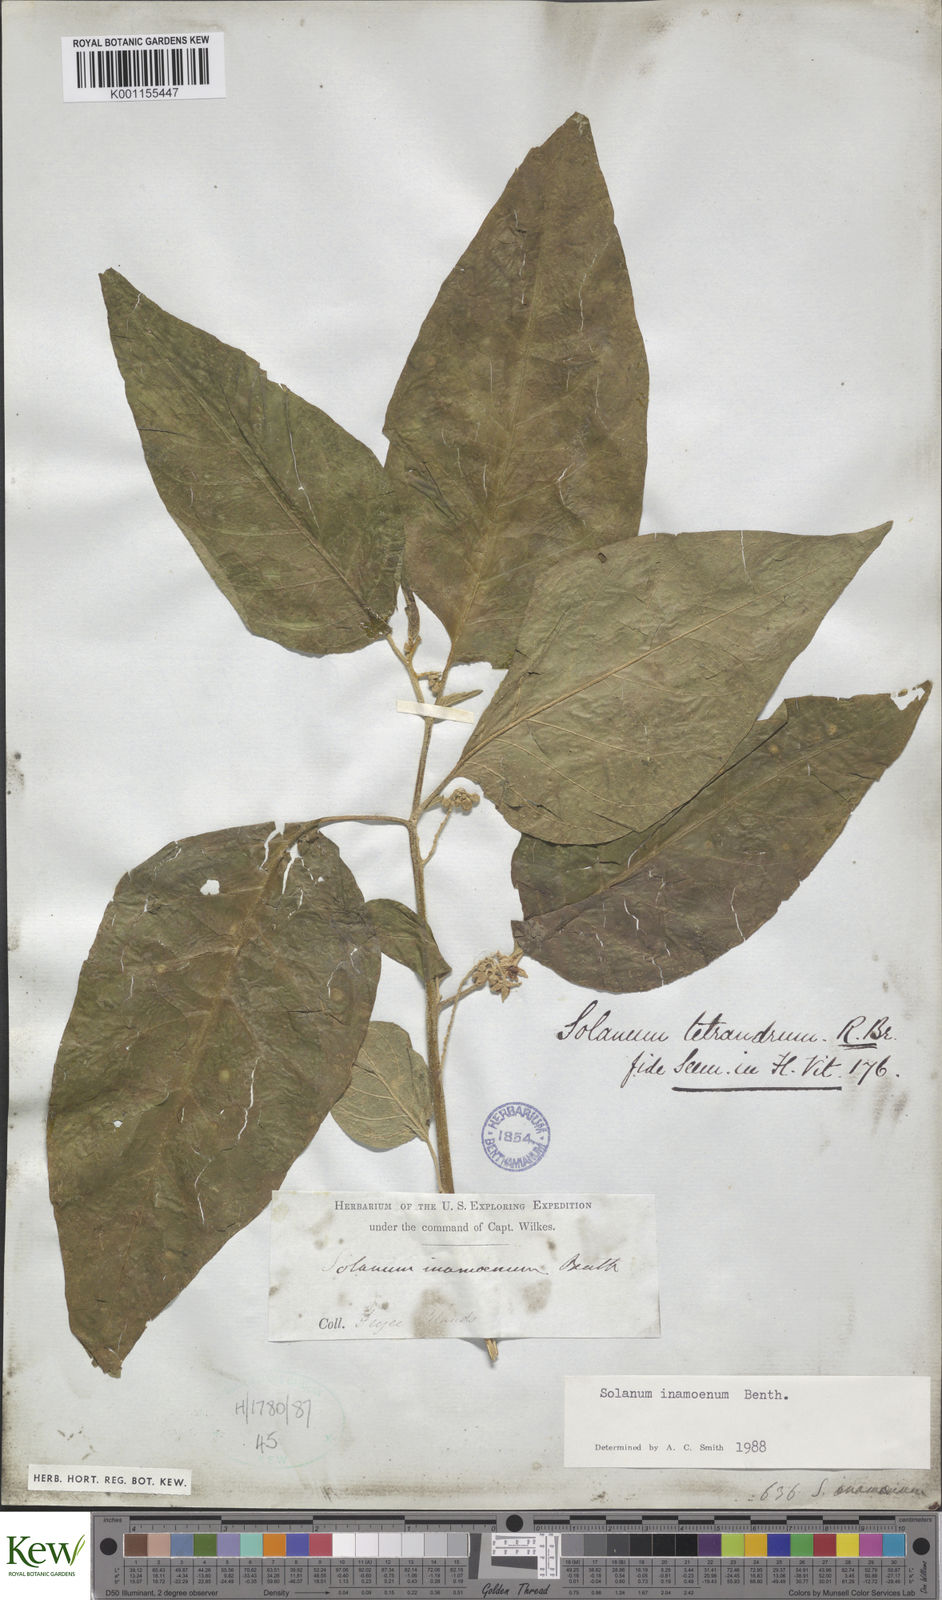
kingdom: Plantae
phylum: Tracheophyta
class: Magnoliopsida
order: Solanales
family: Solanaceae
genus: Solanum
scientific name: Solanum inamoenum
